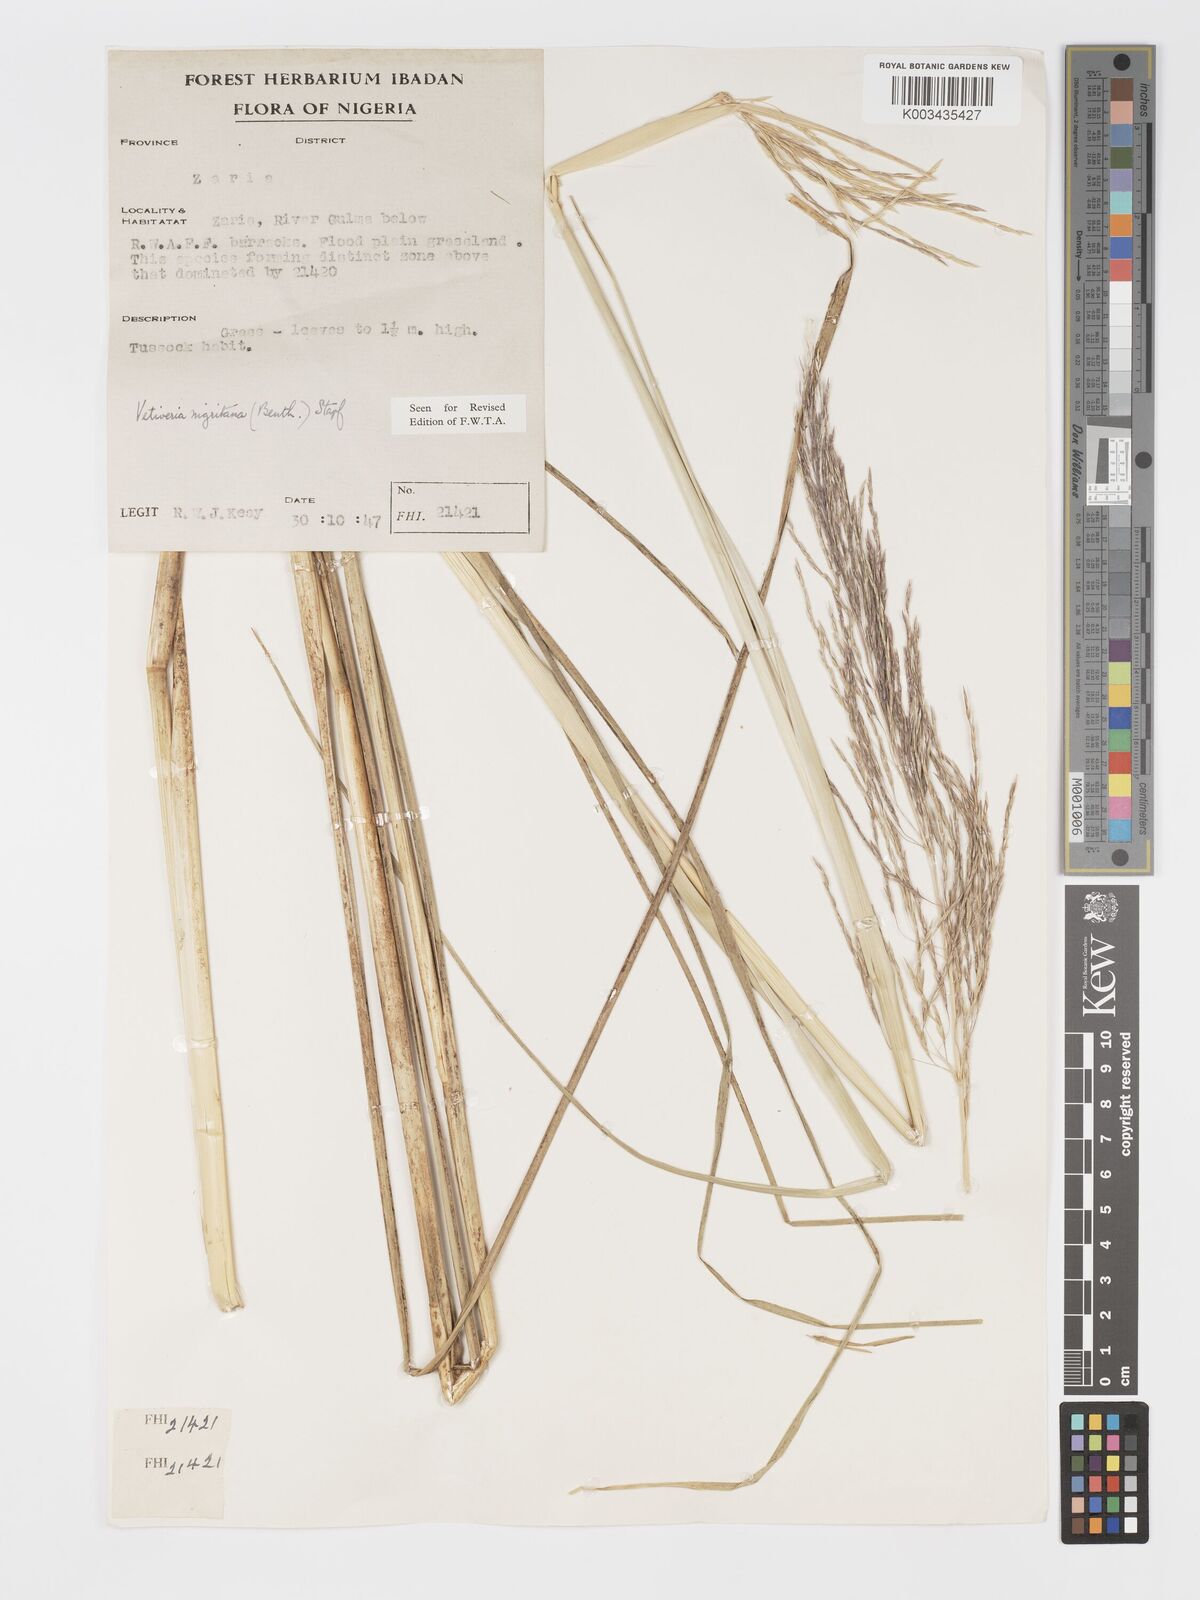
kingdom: Plantae
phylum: Tracheophyta
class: Liliopsida
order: Poales
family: Poaceae
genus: Chrysopogon
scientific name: Chrysopogon nigritanus
